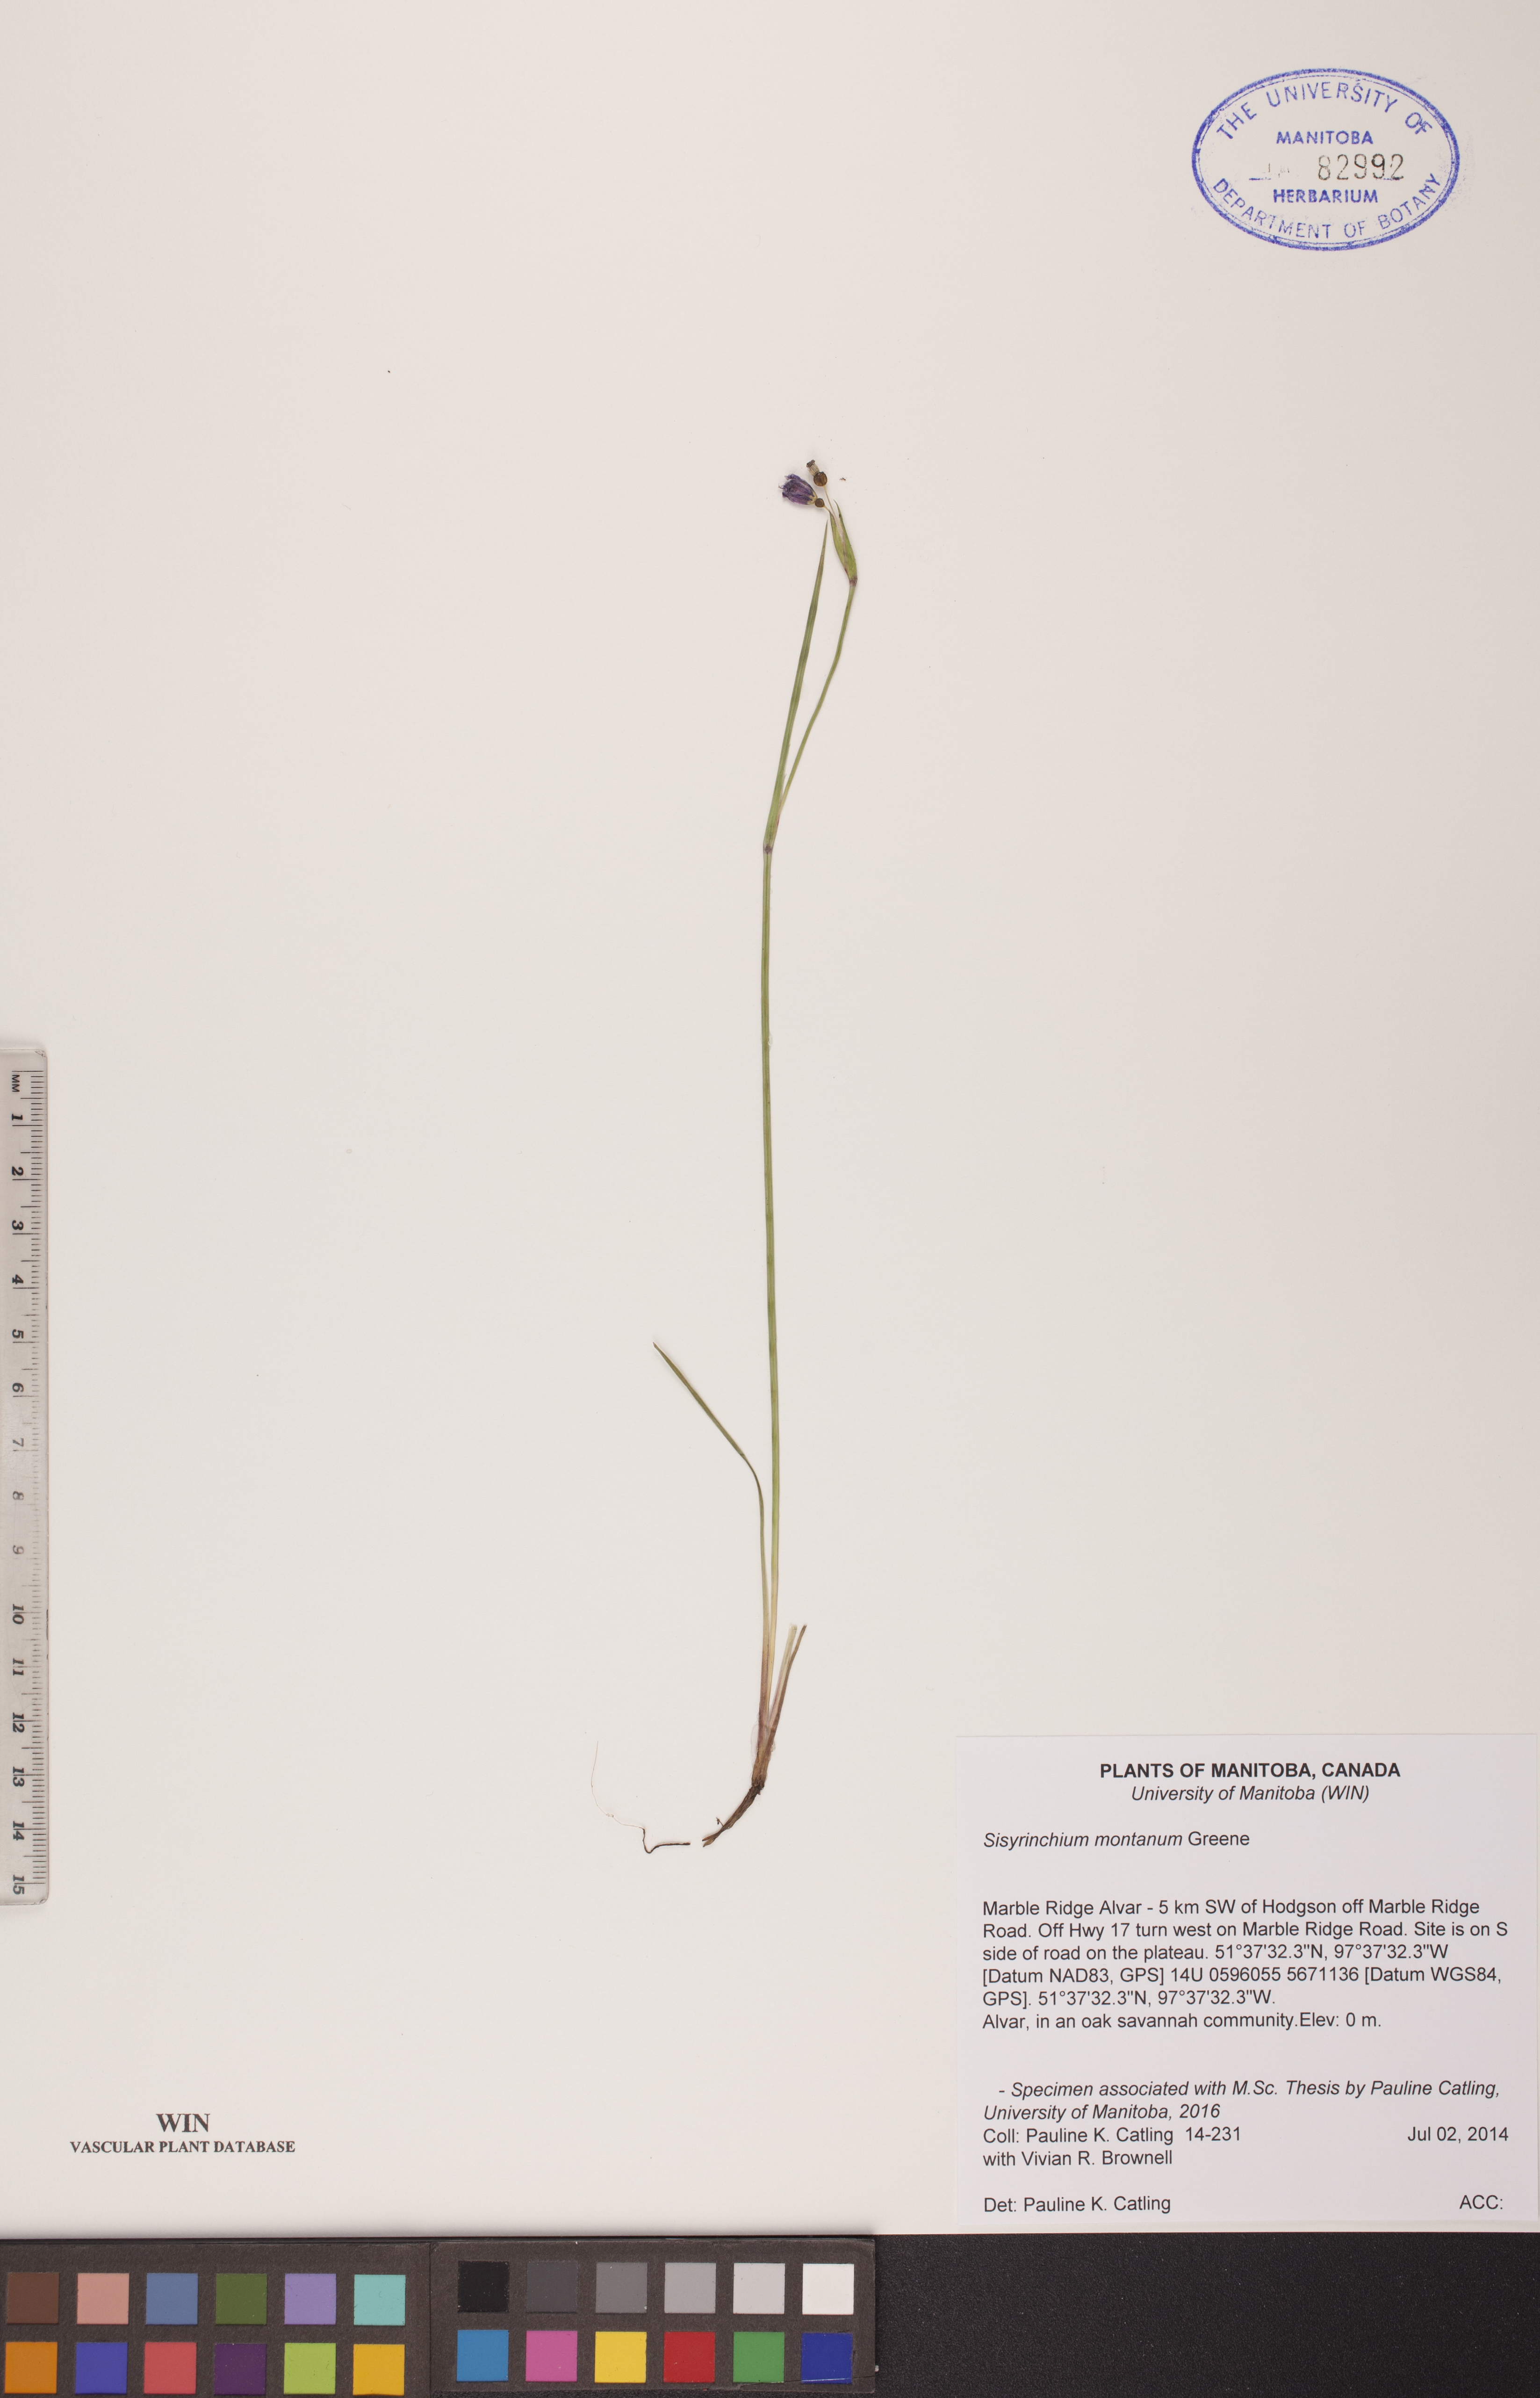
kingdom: Plantae
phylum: Tracheophyta
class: Liliopsida
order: Asparagales
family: Iridaceae
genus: Sisyrinchium
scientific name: Sisyrinchium montanum
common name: American blue-eyed-grass
